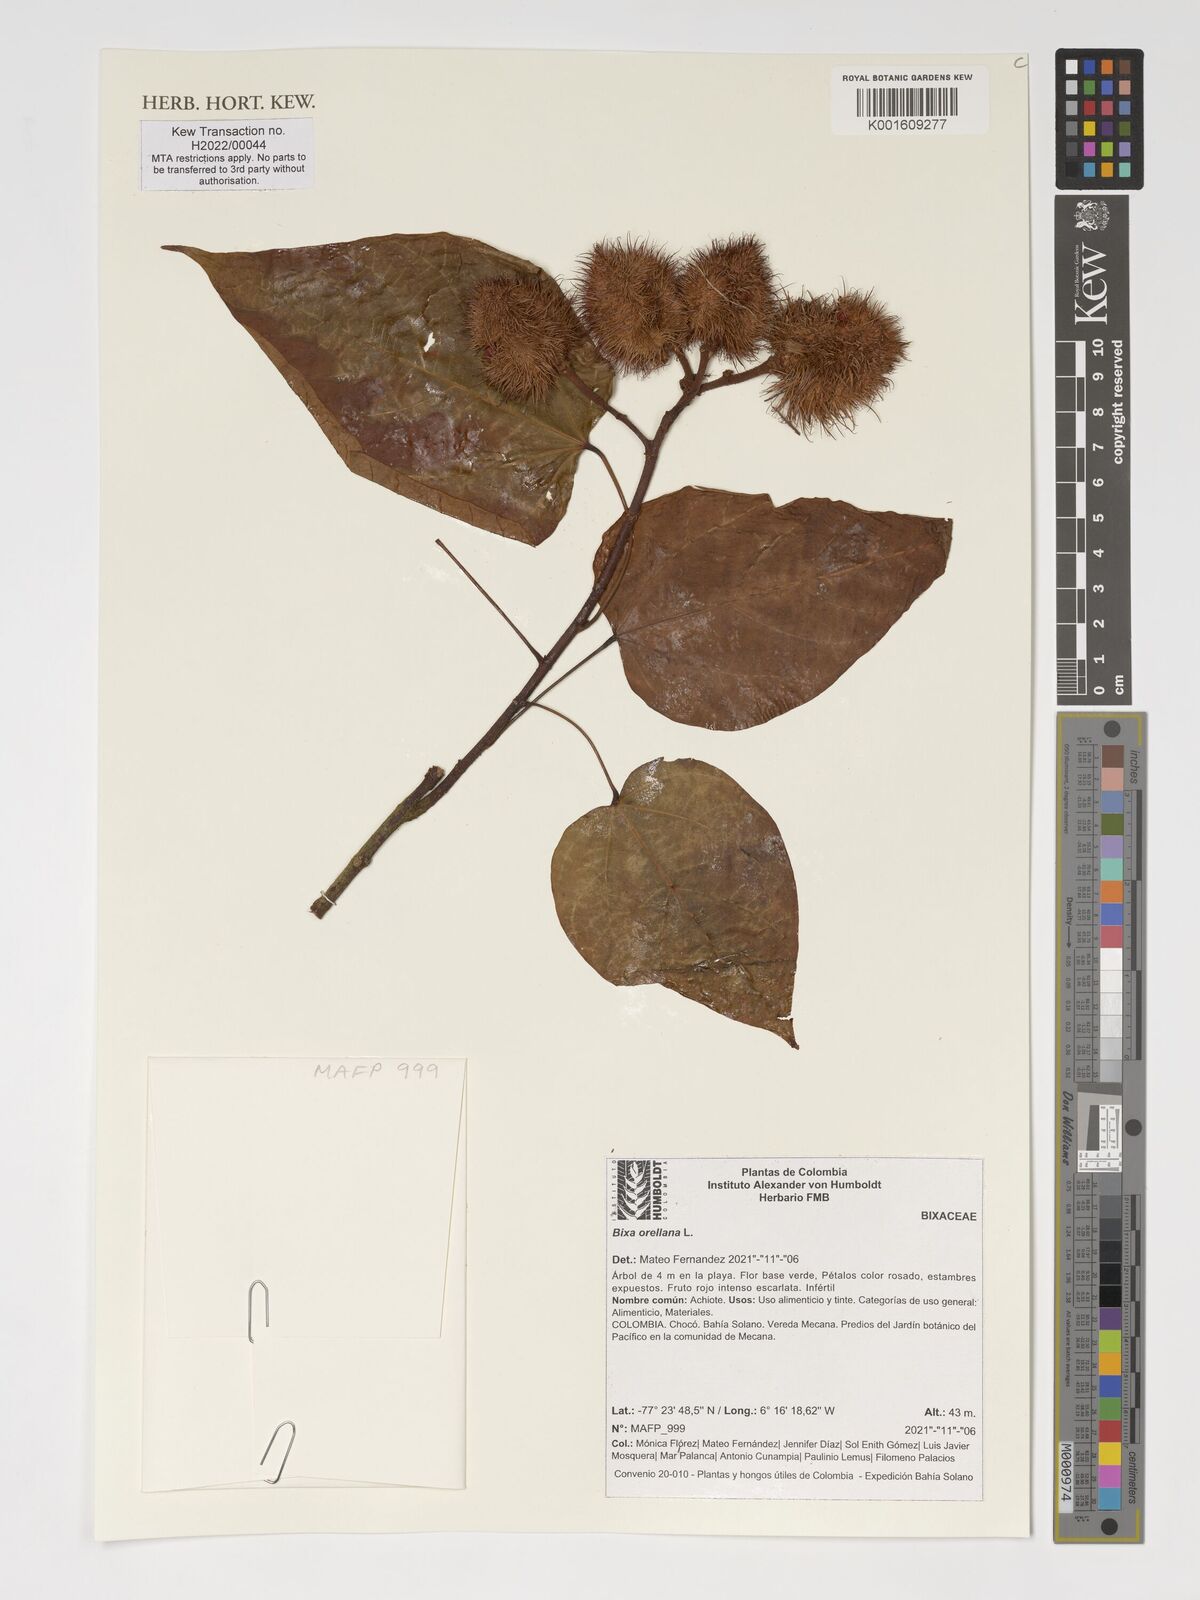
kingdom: Plantae
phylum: Tracheophyta
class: Magnoliopsida
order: Malvales
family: Bixaceae
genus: Bixa
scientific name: Bixa orellana
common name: Lipsticktree
